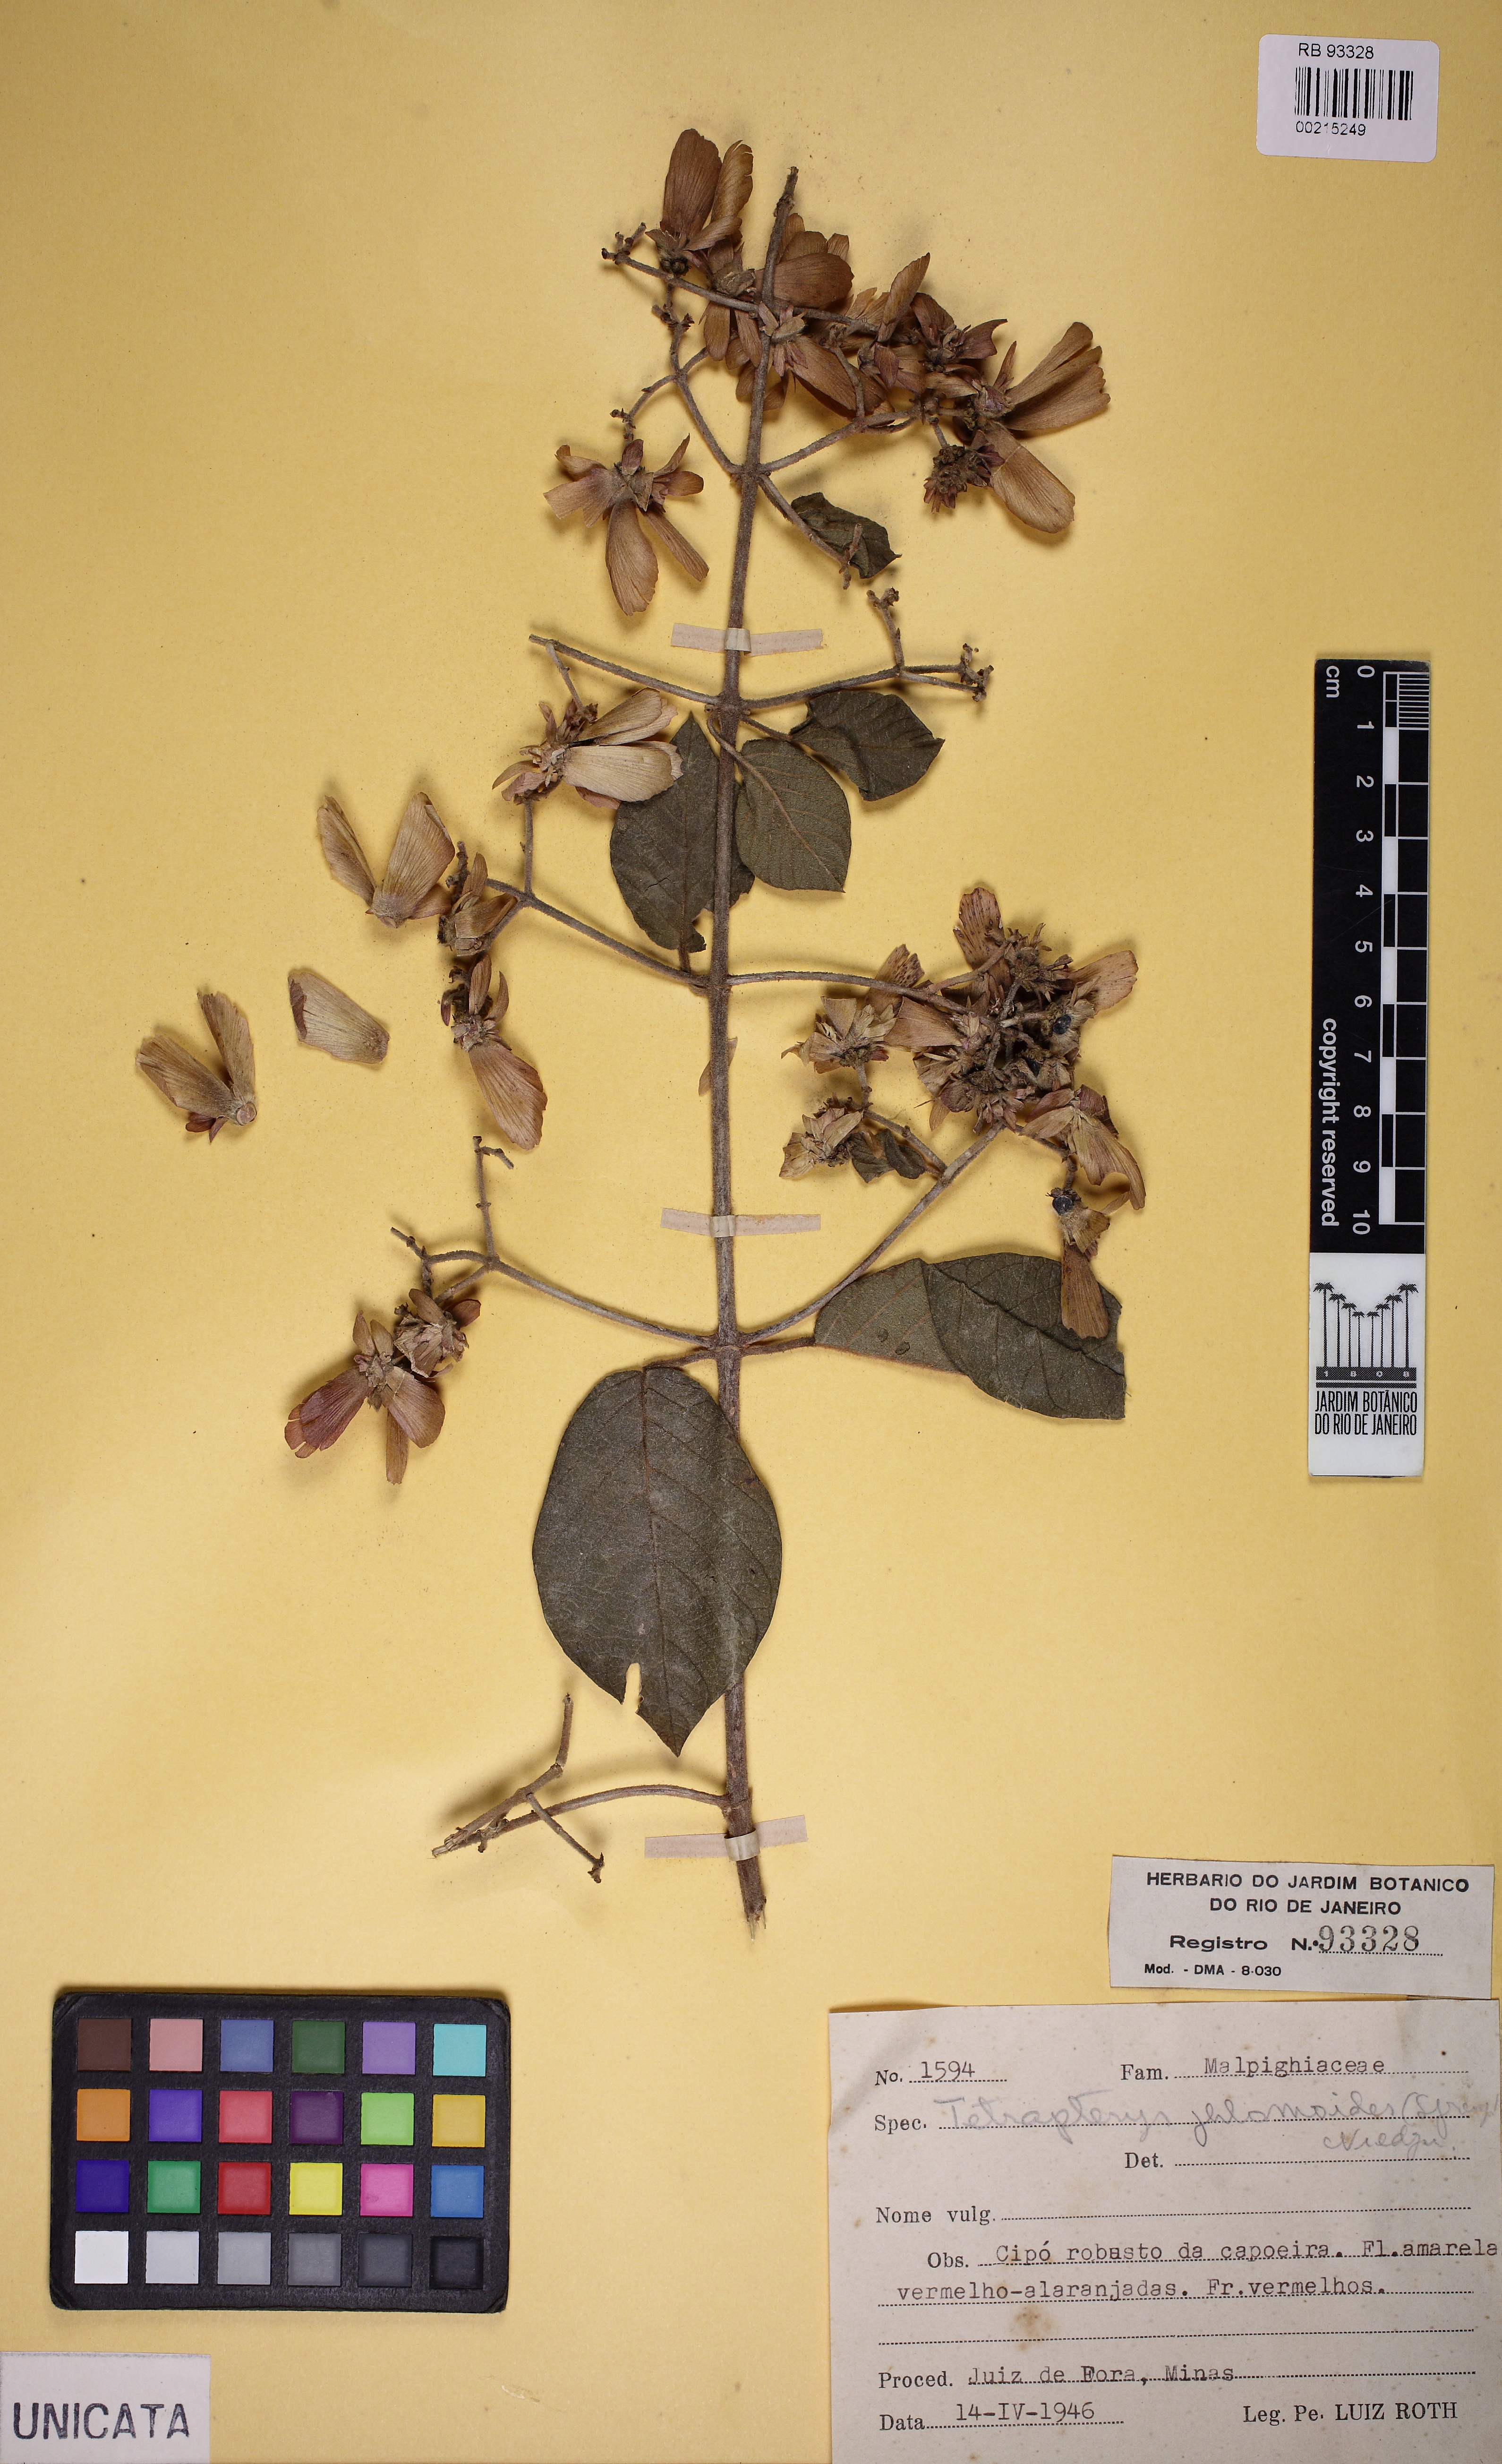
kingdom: Plantae
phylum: Tracheophyta
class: Magnoliopsida
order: Malpighiales
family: Malpighiaceae
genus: Tetrapterys
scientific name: Tetrapterys phlomoides
